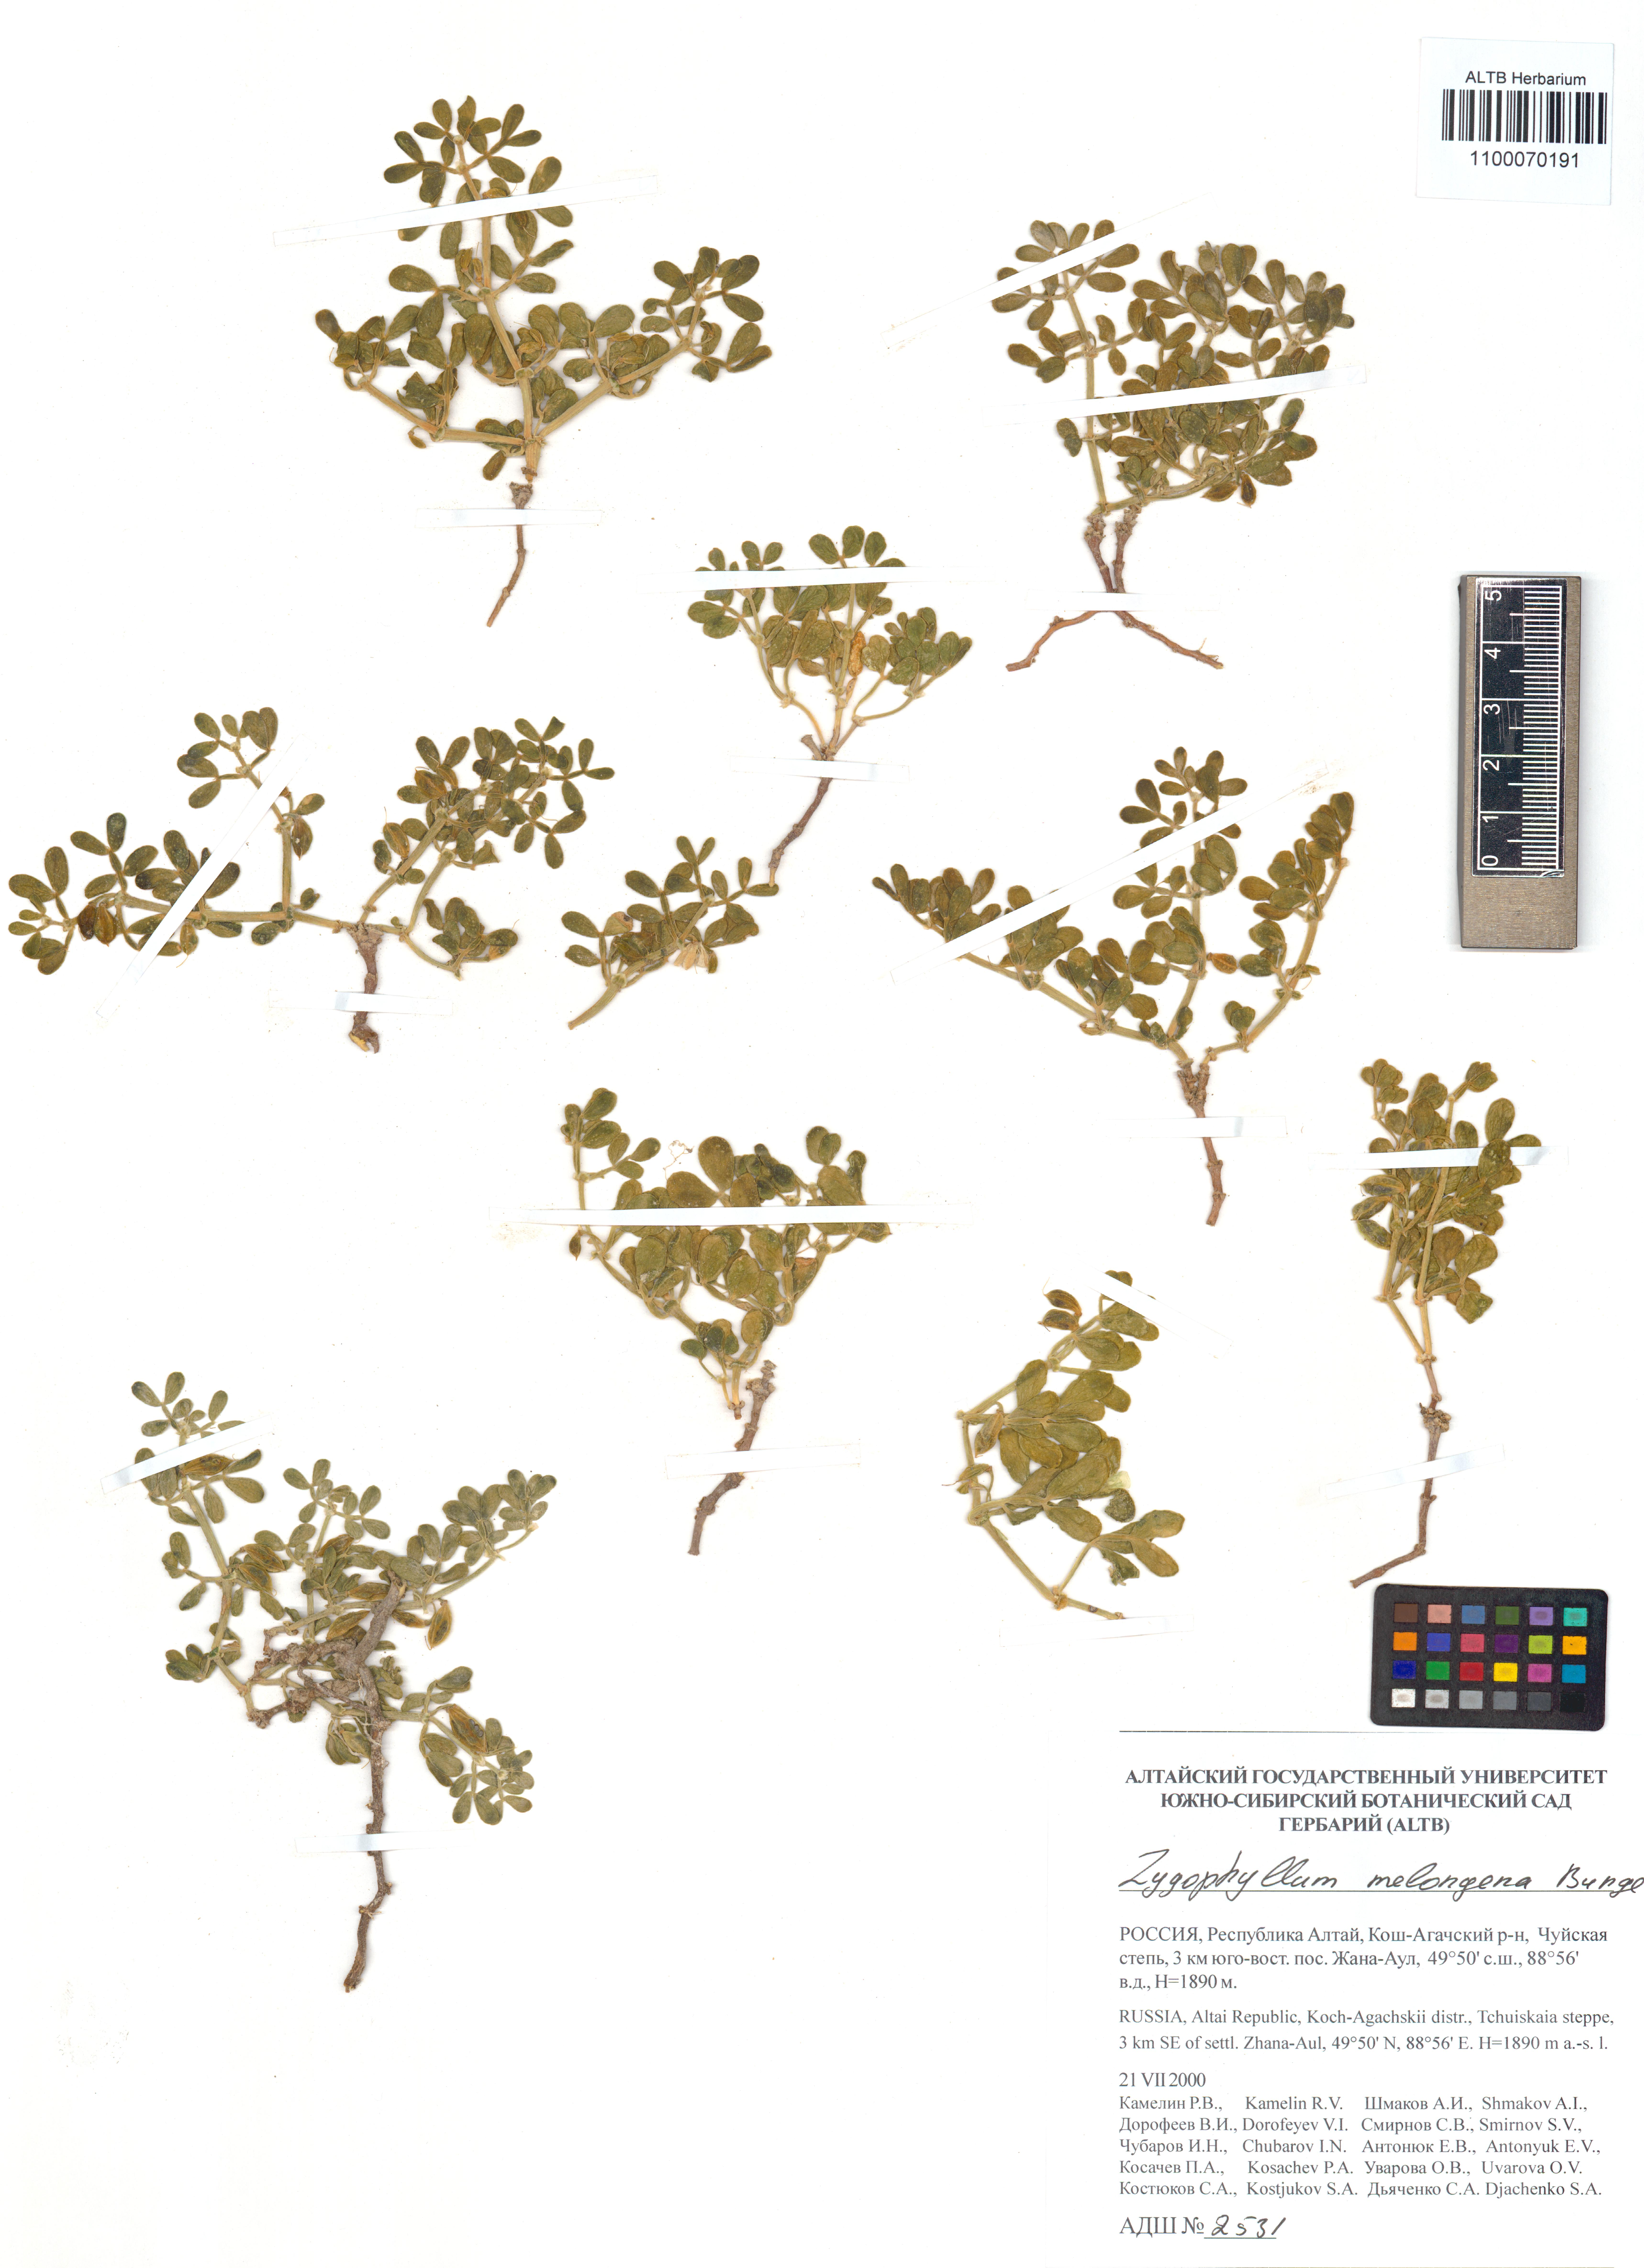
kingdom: Plantae
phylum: Tracheophyta
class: Magnoliopsida
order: Zygophyllales
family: Zygophyllaceae
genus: Zygophyllum
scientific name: Zygophyllum melongena
